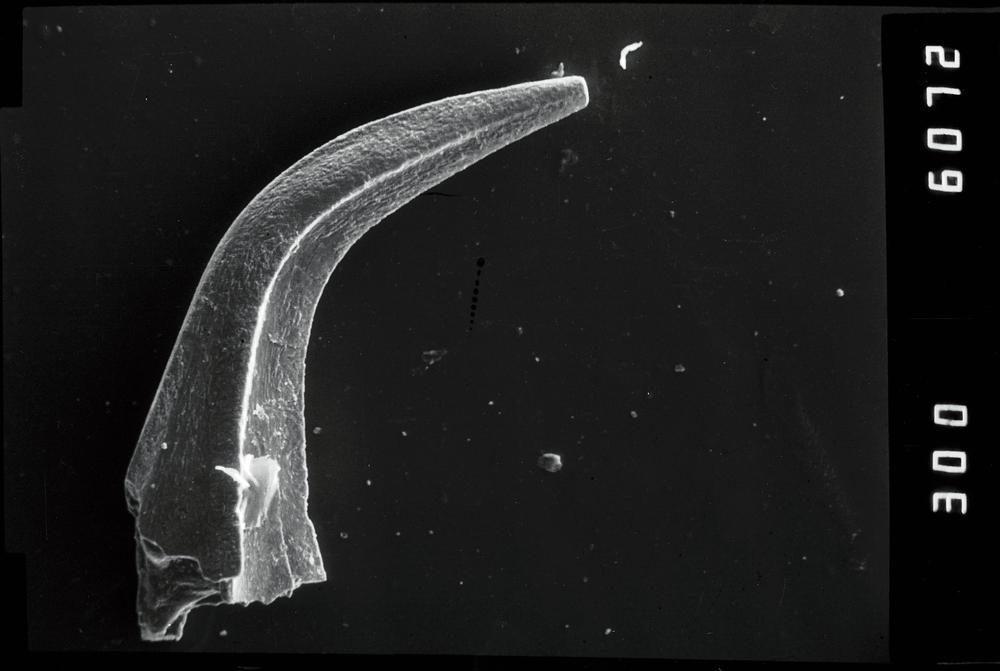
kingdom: Animalia
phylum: Chordata
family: Acodontidae
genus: Acodus
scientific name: Acodus deltatus
